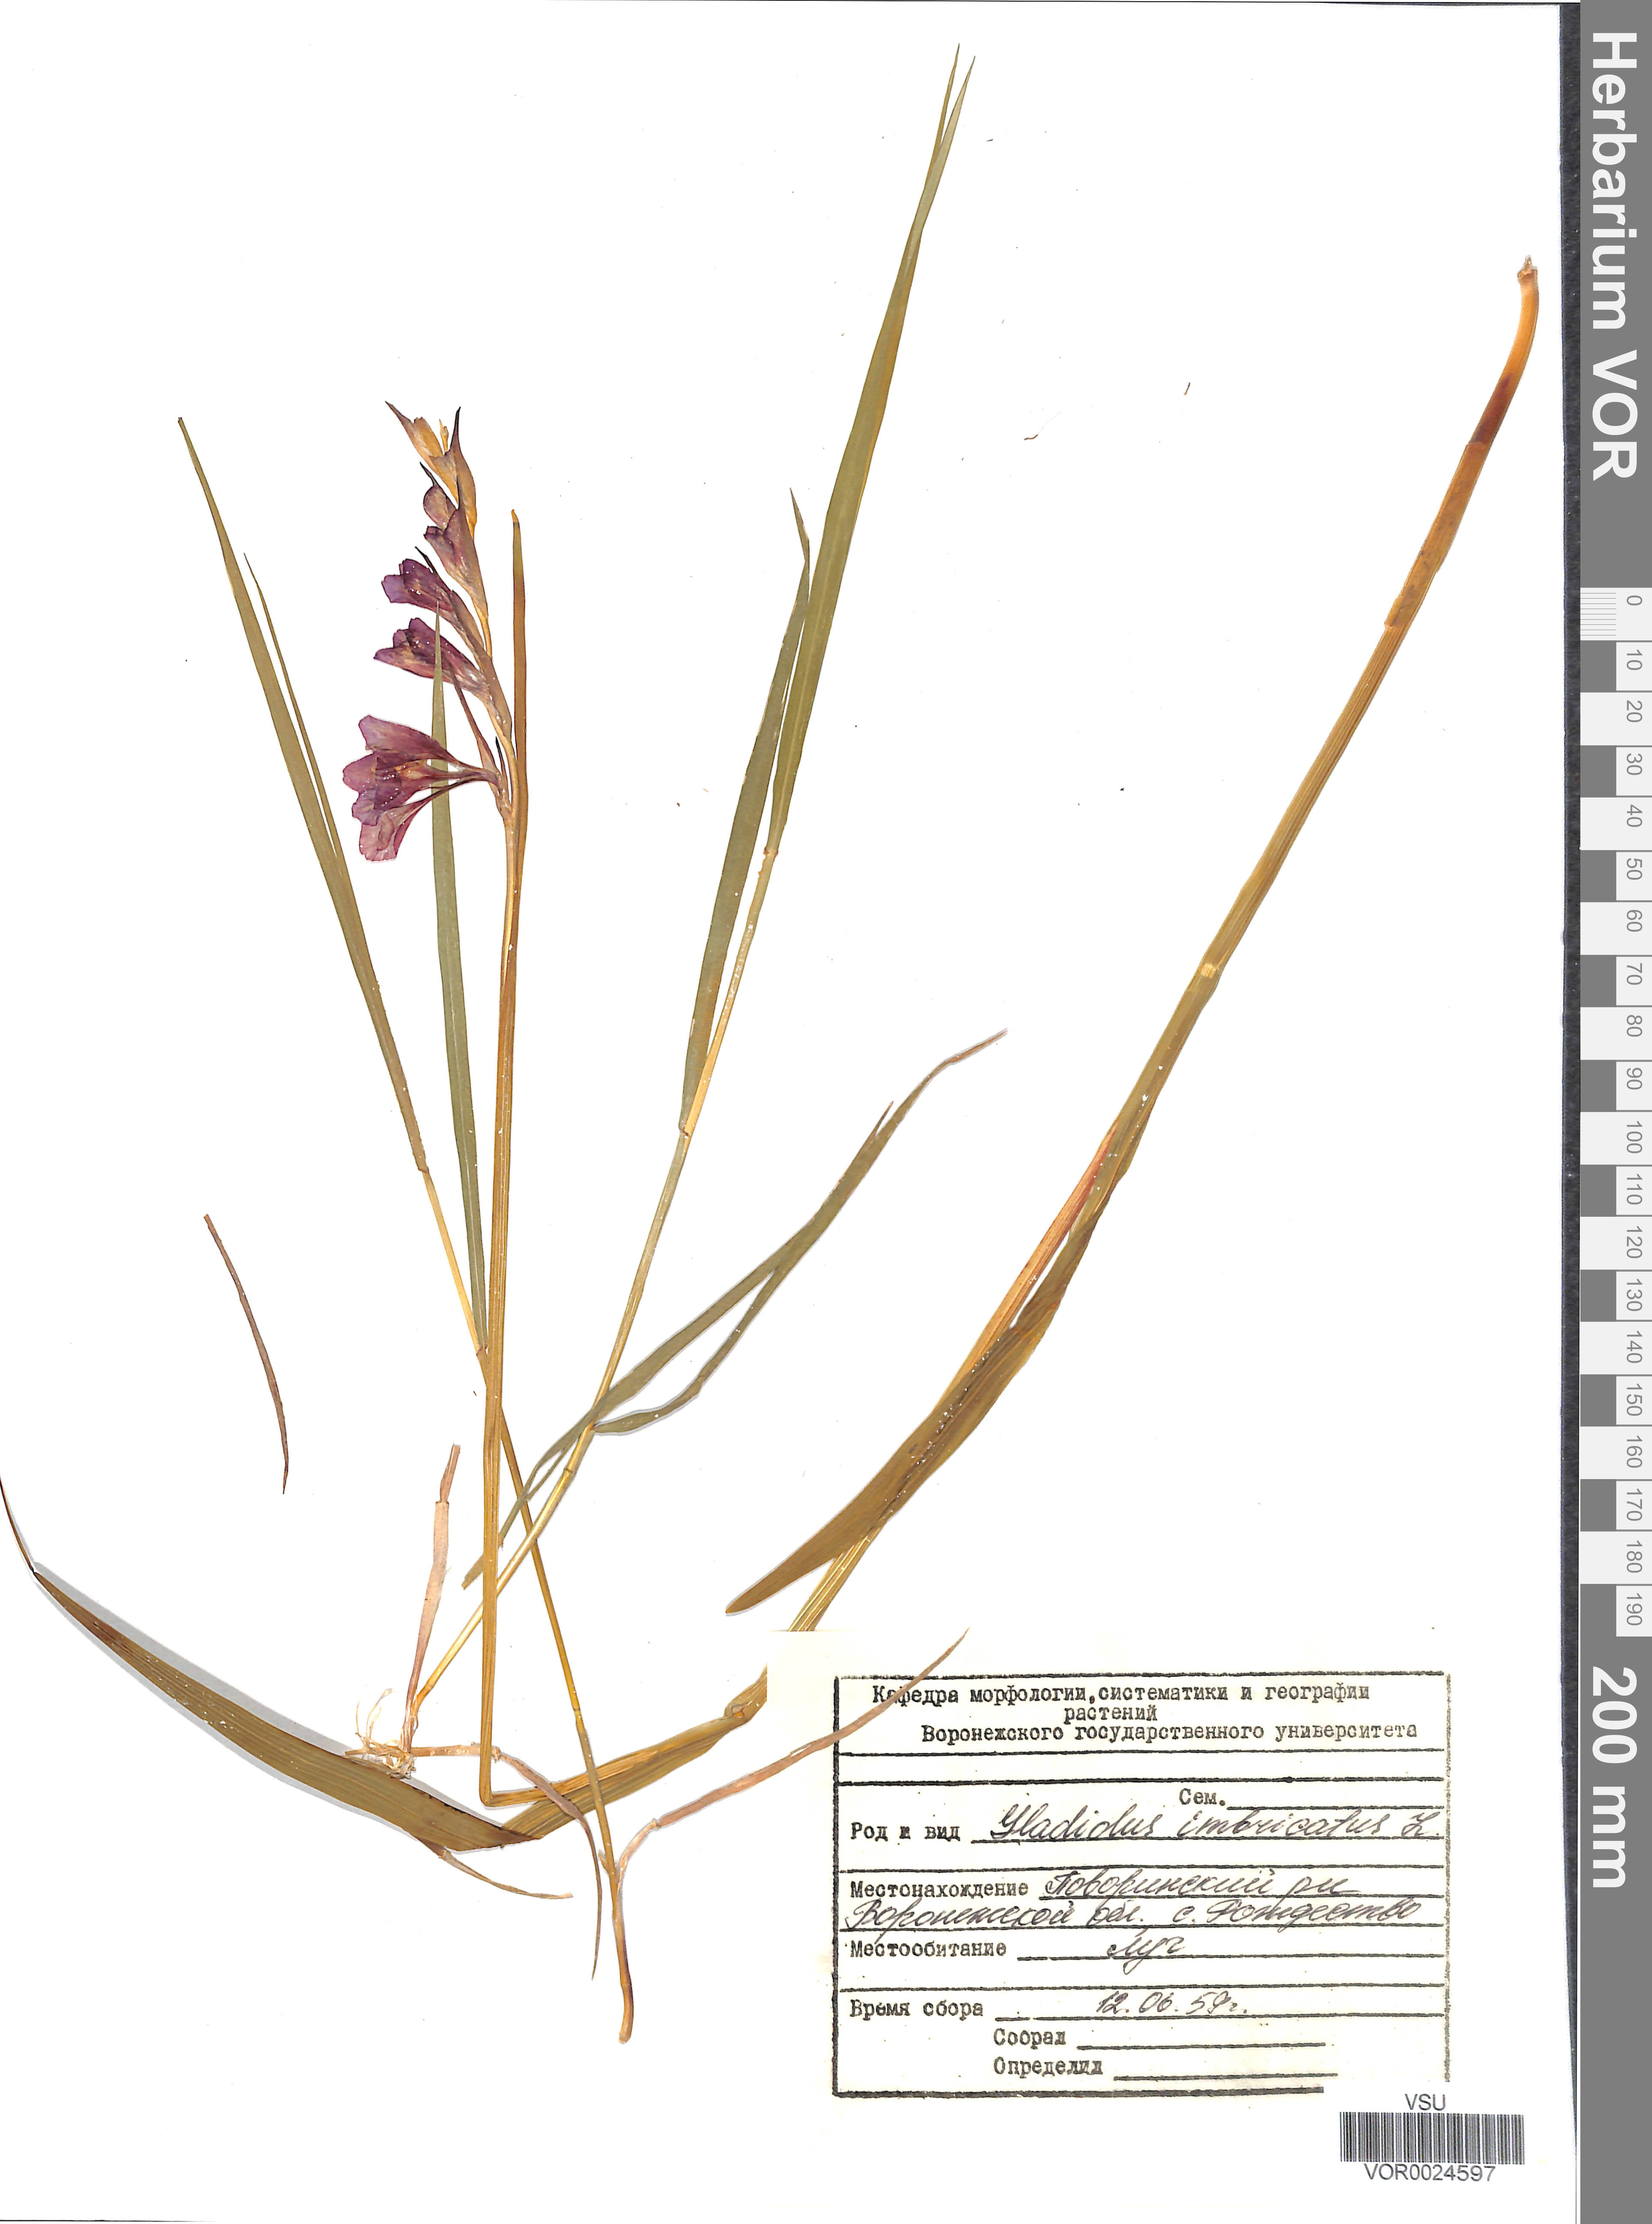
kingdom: Plantae
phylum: Tracheophyta
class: Liliopsida
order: Asparagales
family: Iridaceae
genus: Gladiolus
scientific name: Gladiolus tenuis
